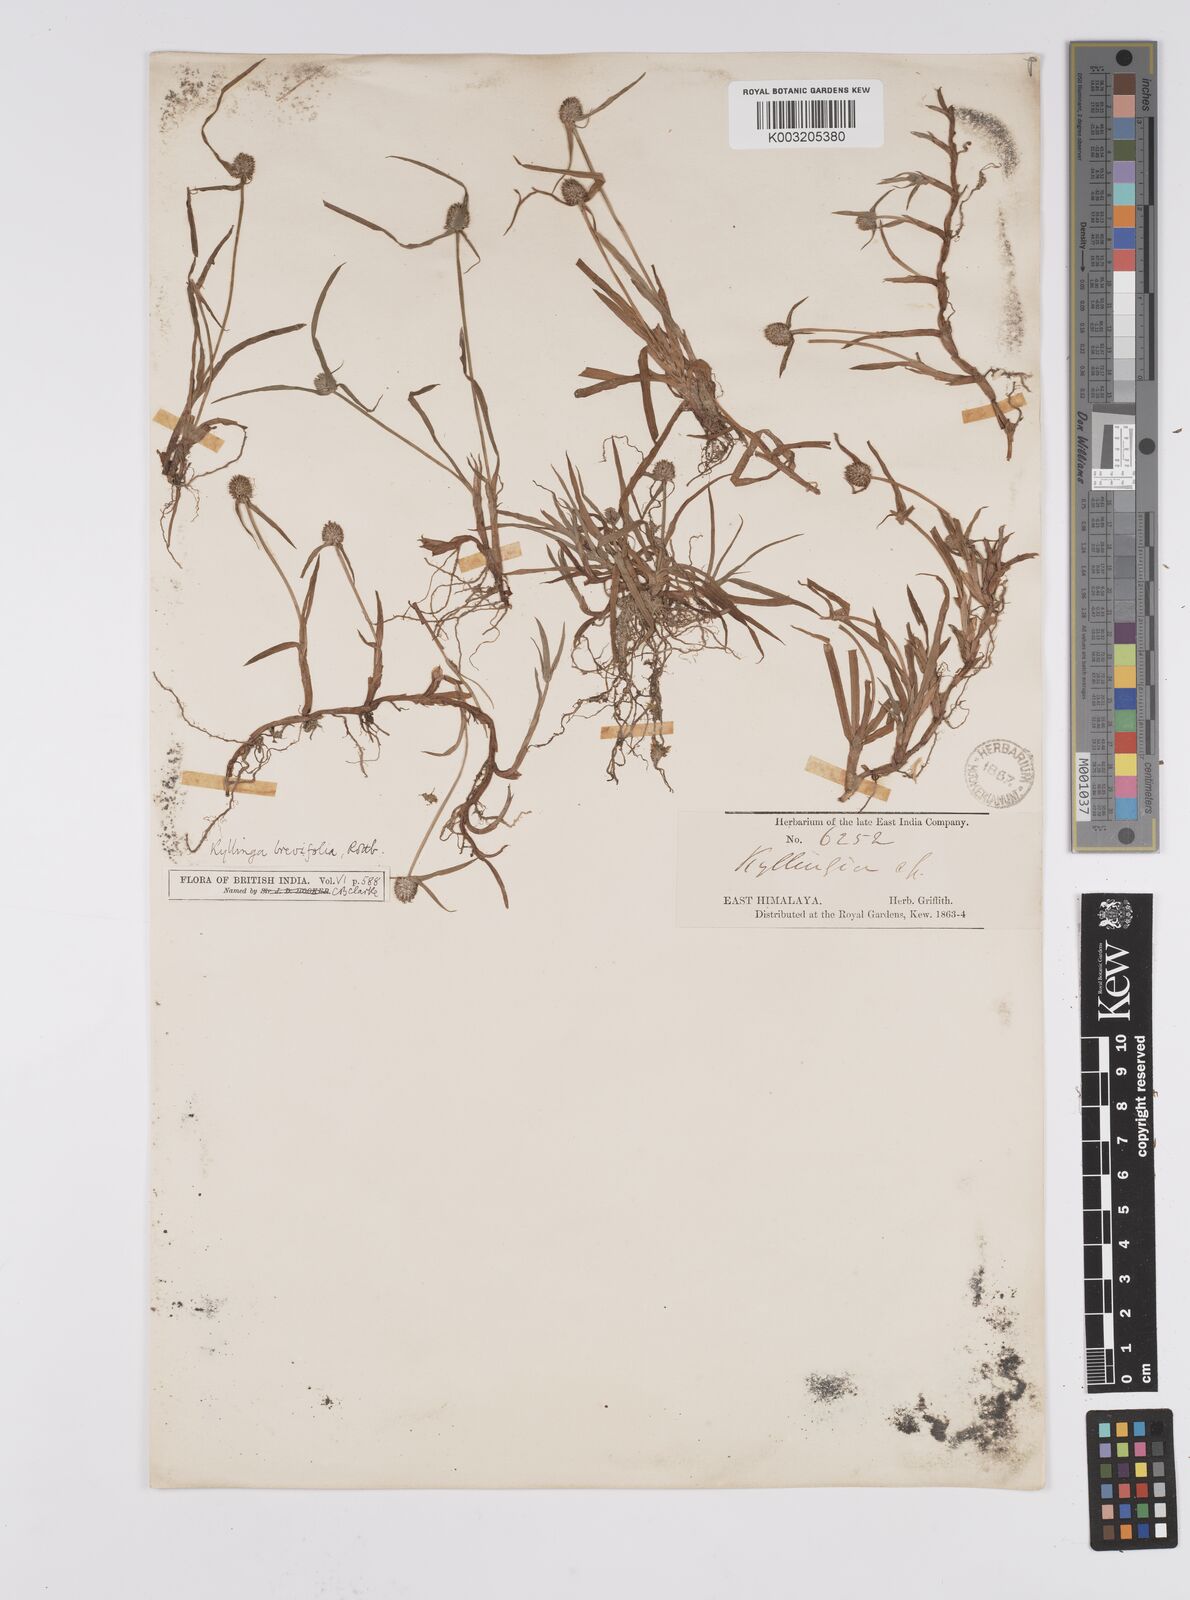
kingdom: Plantae
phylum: Tracheophyta
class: Liliopsida
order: Poales
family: Cyperaceae
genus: Cyperus
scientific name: Cyperus brevifolius
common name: Globe kyllinga
